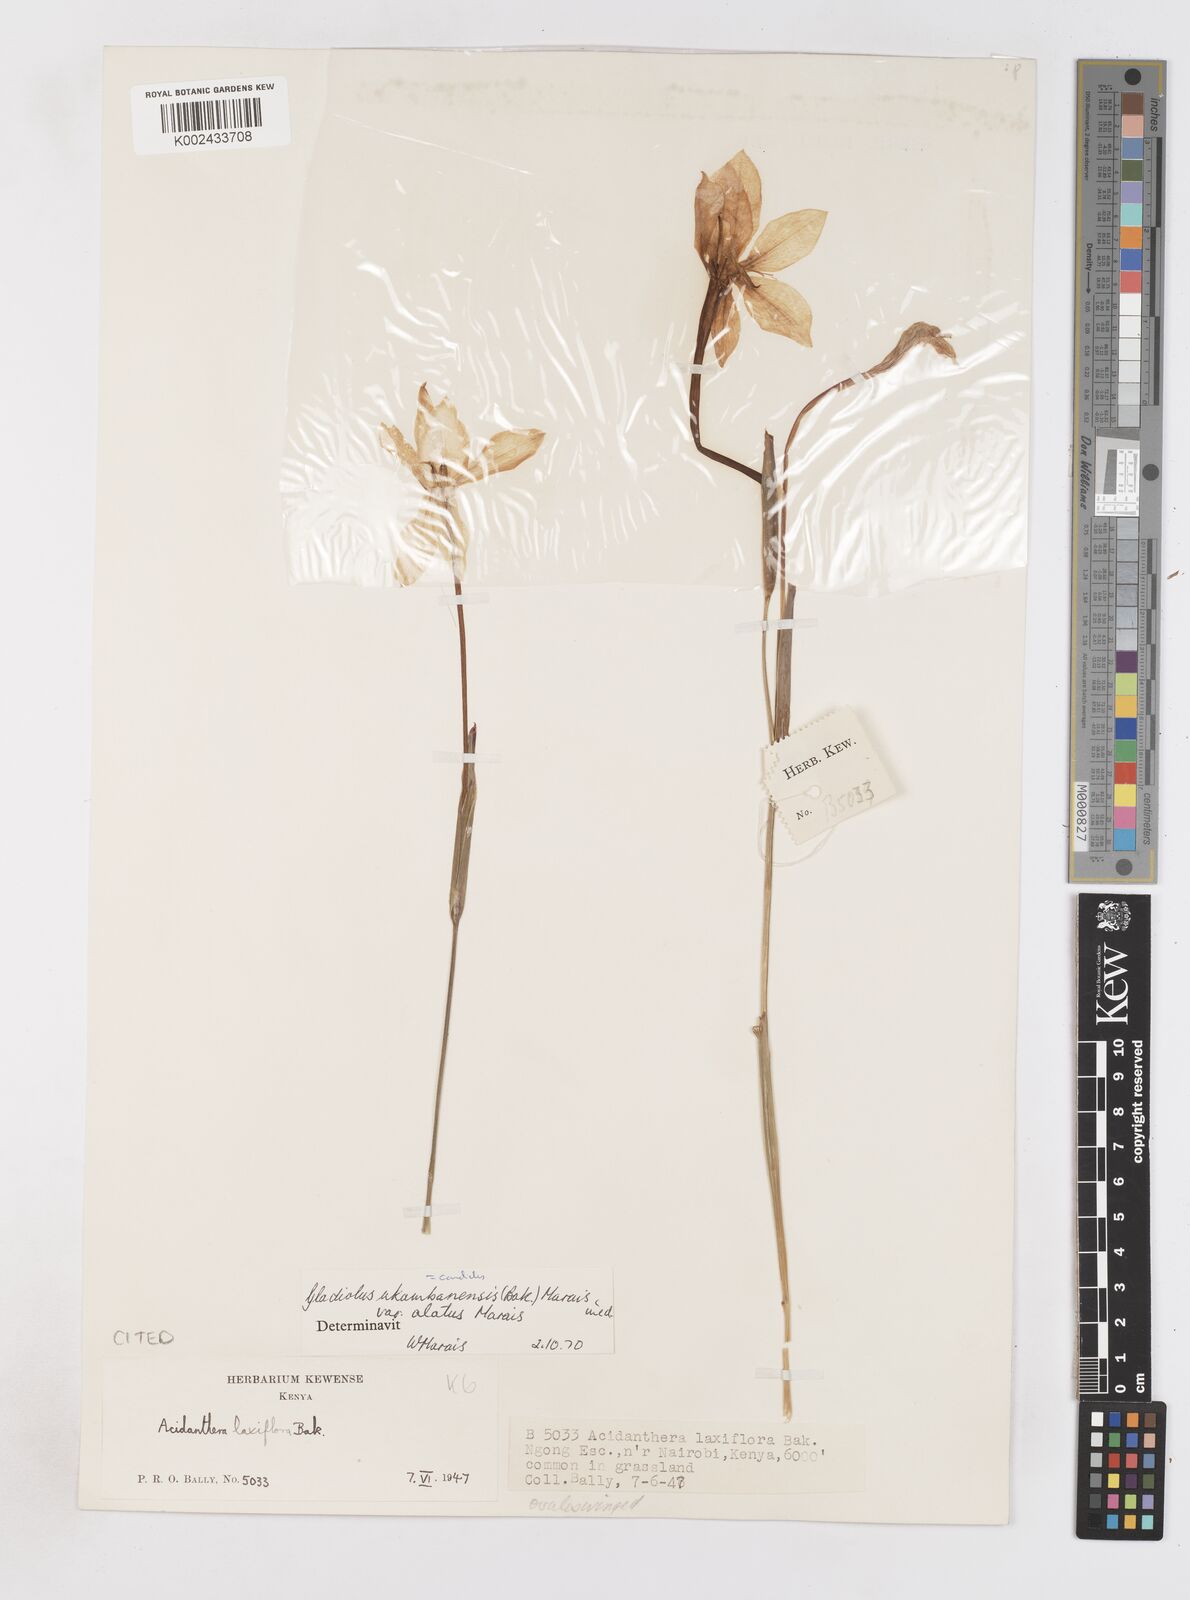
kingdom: Plantae
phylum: Tracheophyta
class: Liliopsida
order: Asparagales
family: Iridaceae
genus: Gladiolus
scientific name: Gladiolus candidus
